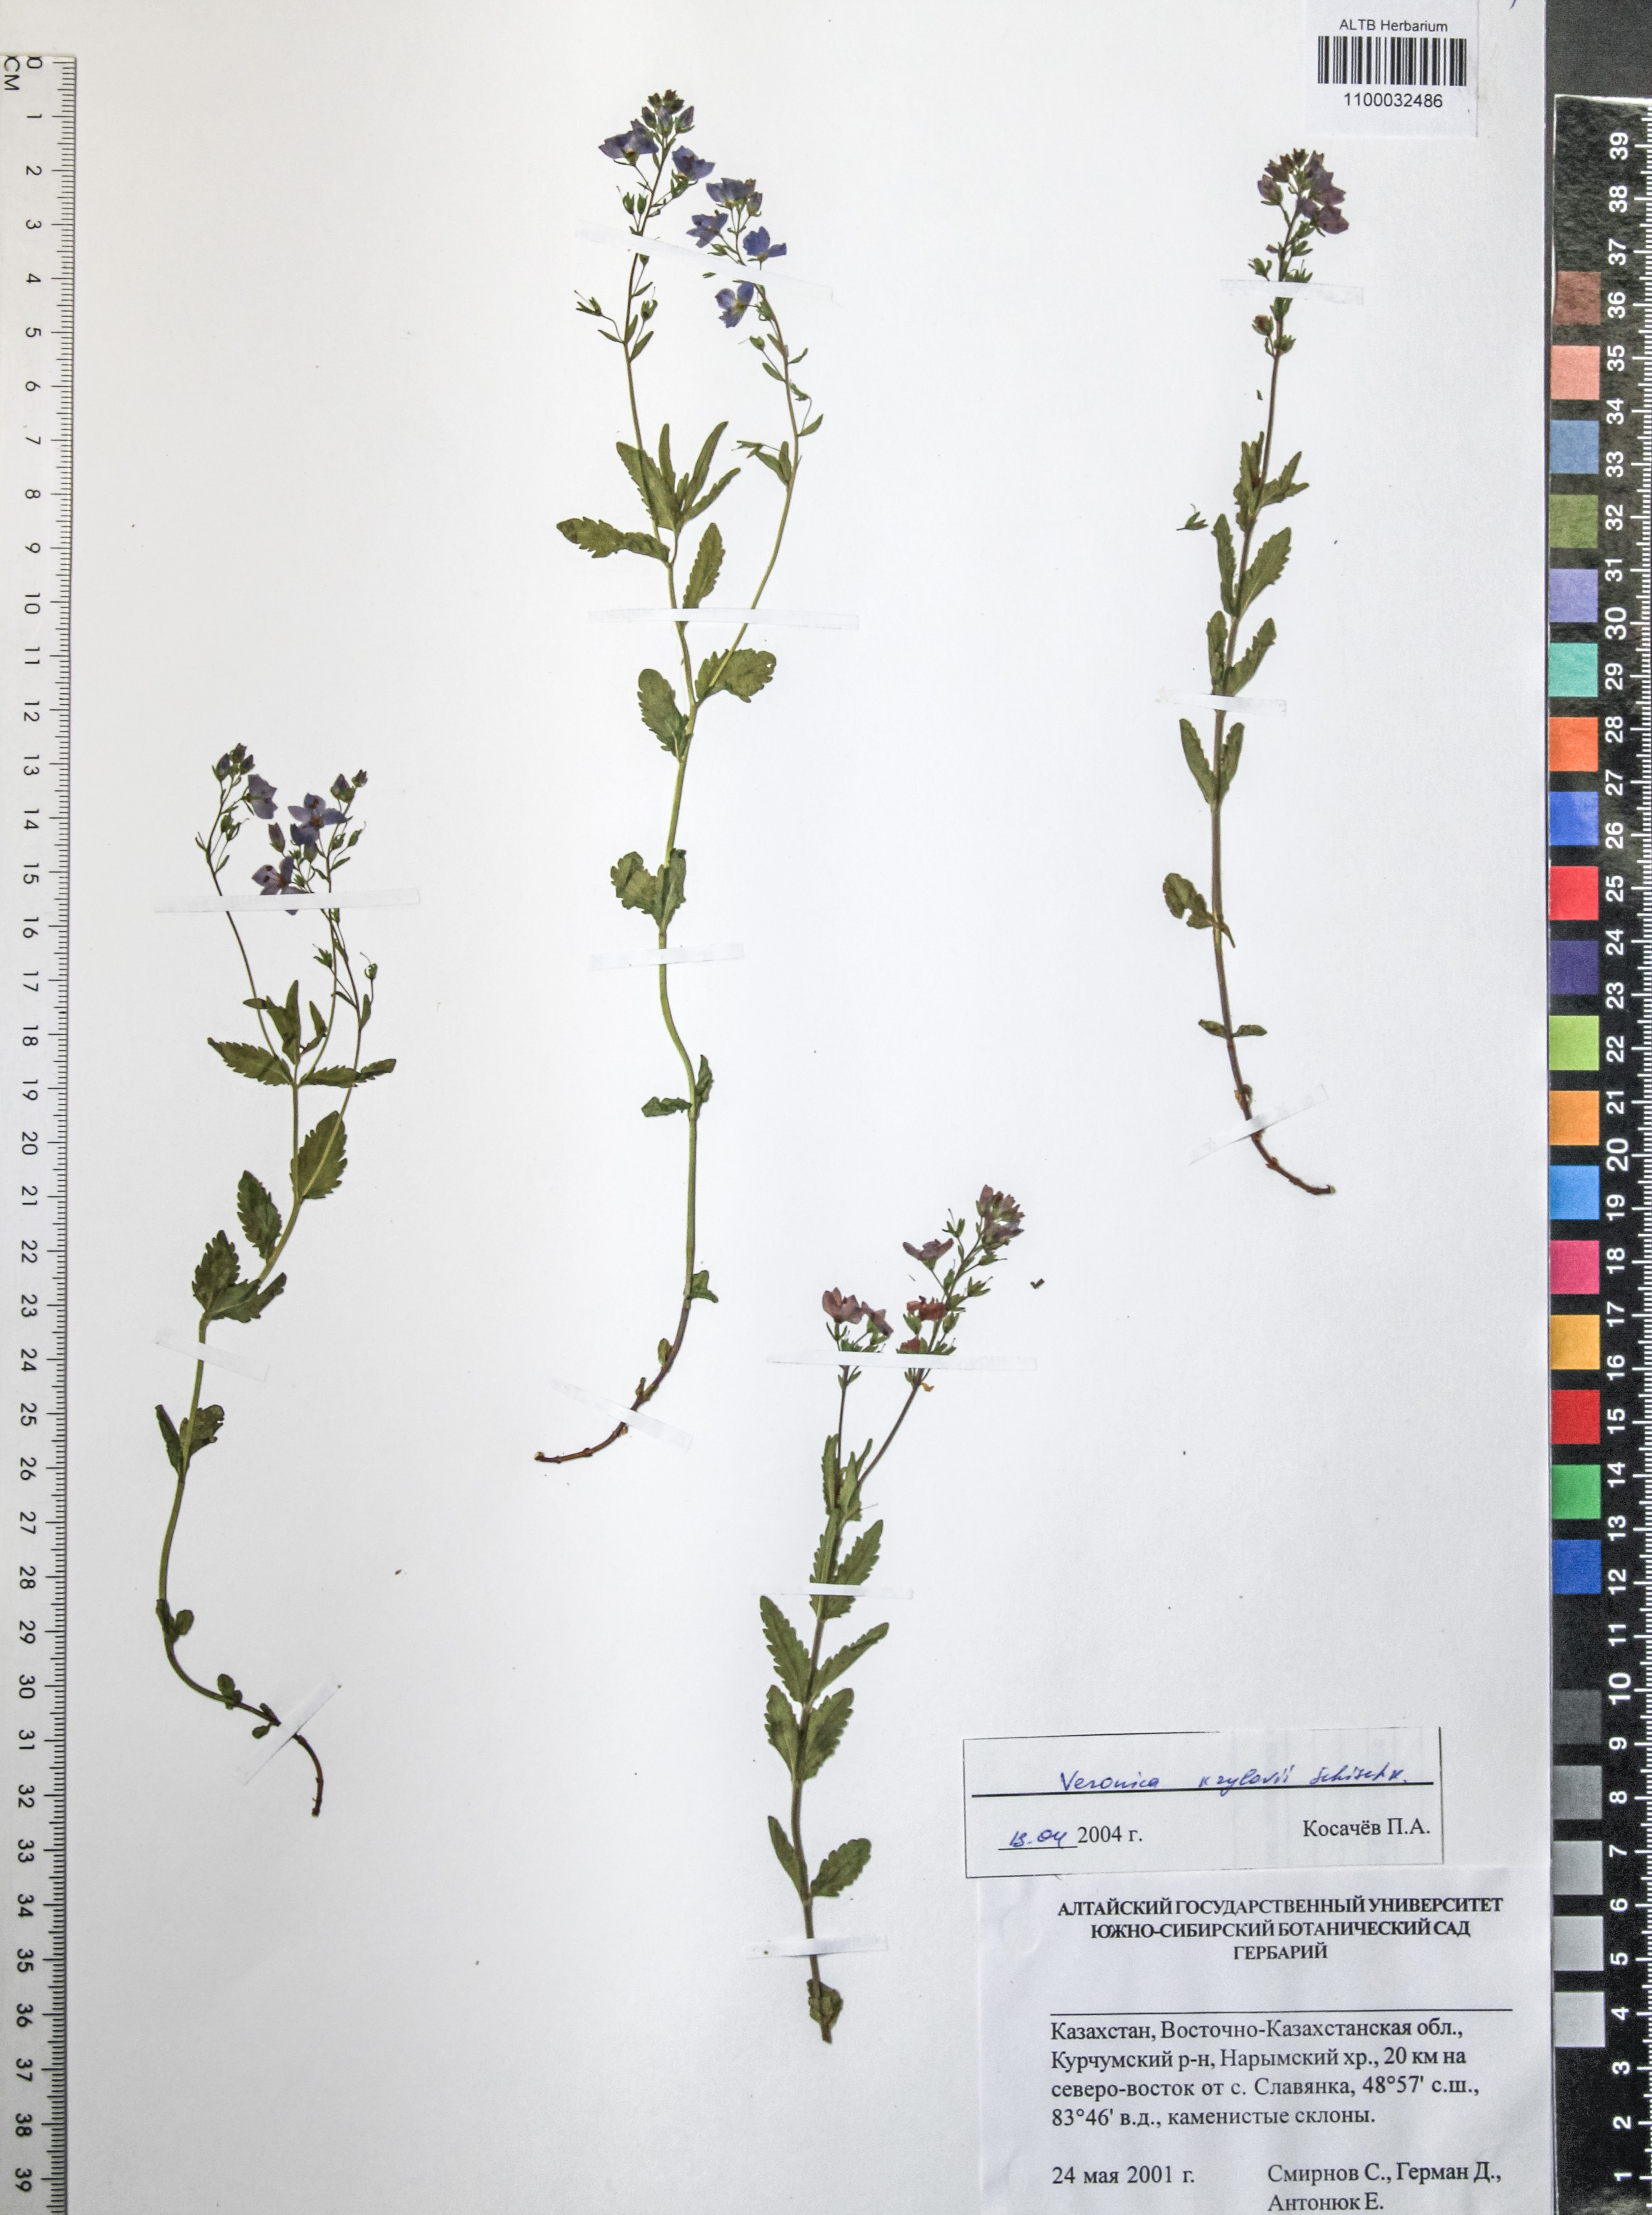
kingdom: Plantae
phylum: Tracheophyta
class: Magnoliopsida
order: Lamiales
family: Plantaginaceae
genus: Veronica
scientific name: Veronica krylovii
